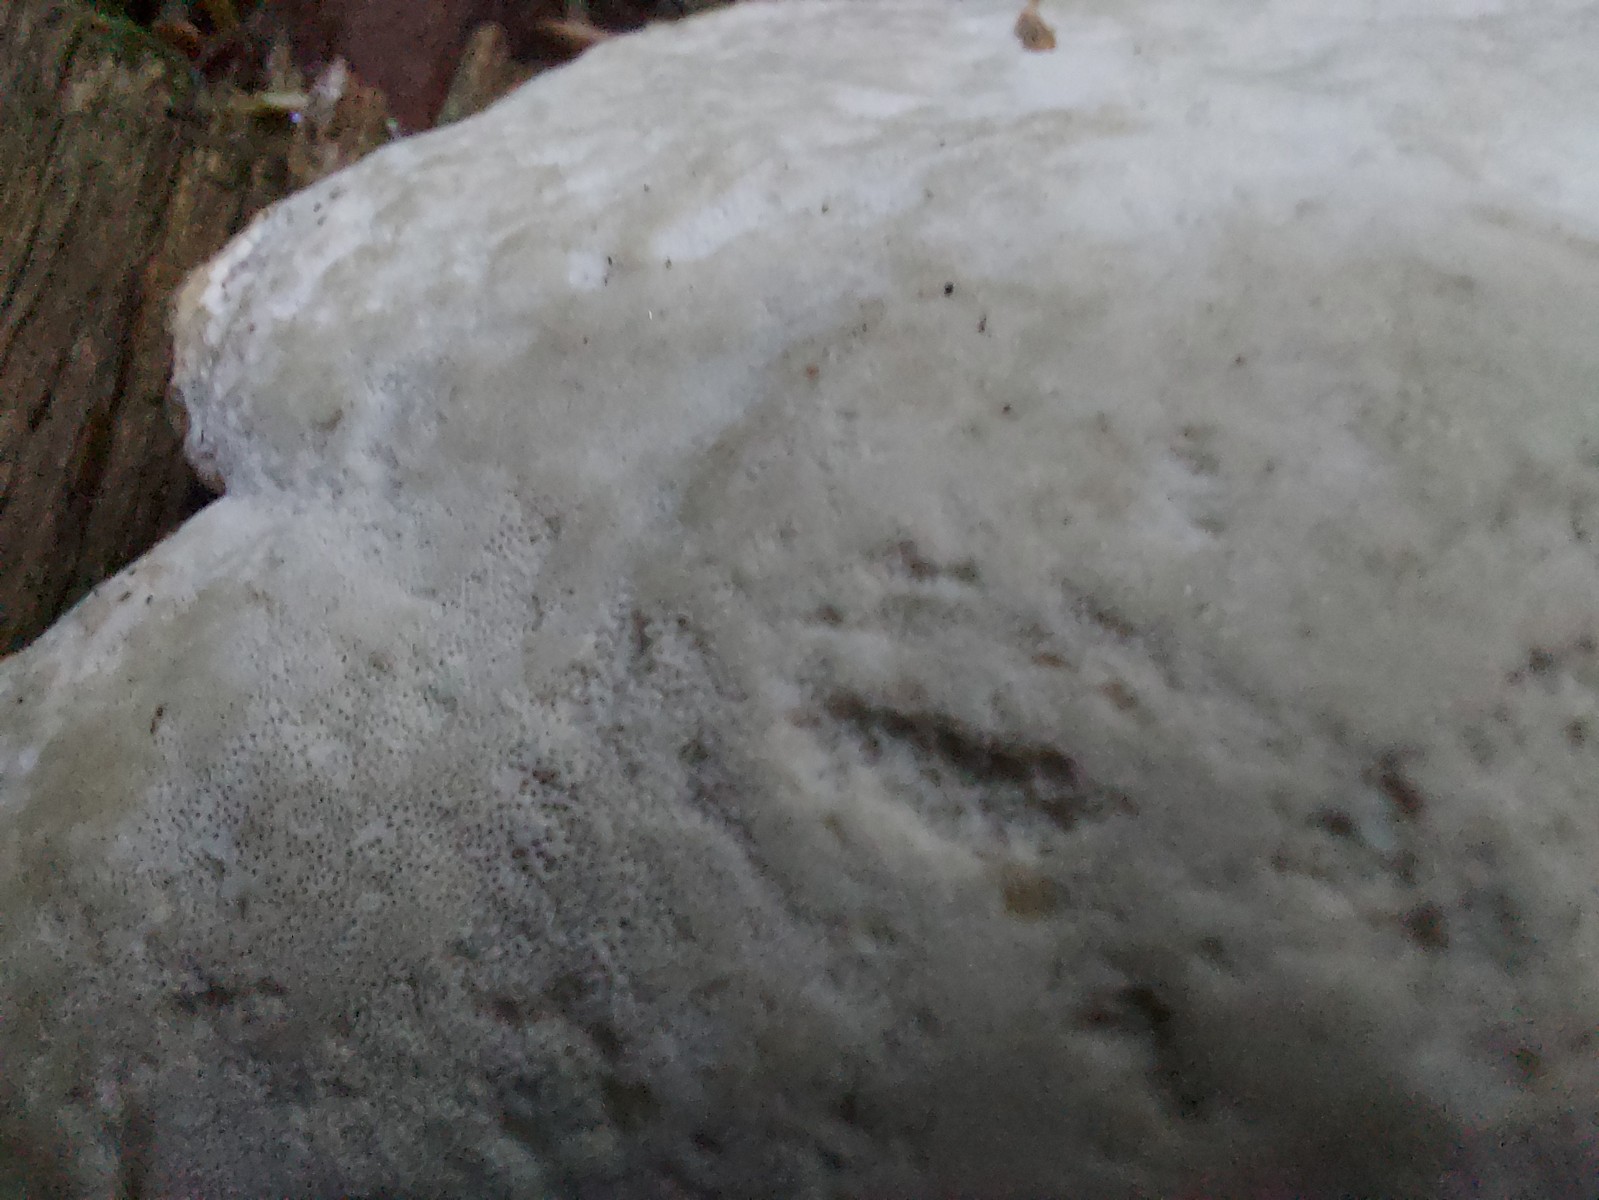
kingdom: Fungi
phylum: Basidiomycota
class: Agaricomycetes
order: Polyporales
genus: Calcipostia
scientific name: Calcipostia guttulata
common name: dråbe-kødporesvamp
